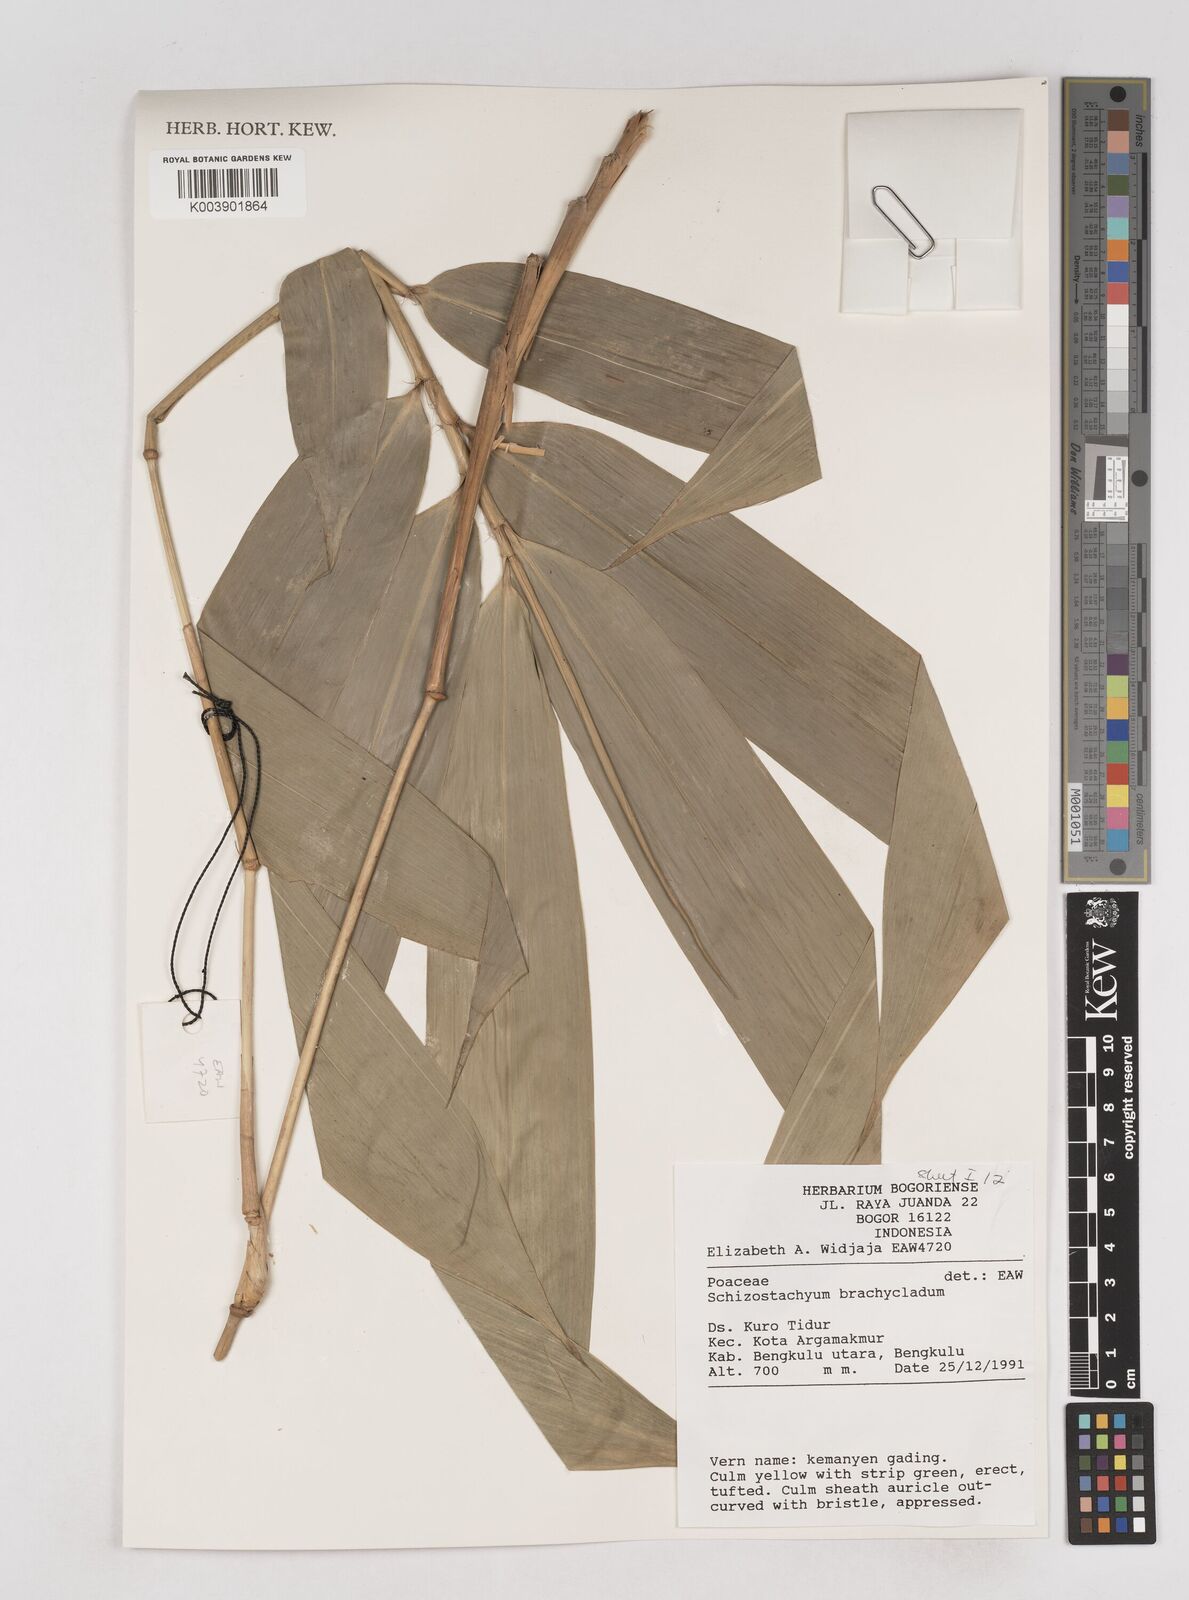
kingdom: Plantae
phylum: Tracheophyta
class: Liliopsida
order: Poales
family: Poaceae
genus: Schizostachyum
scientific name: Schizostachyum brachycladum
